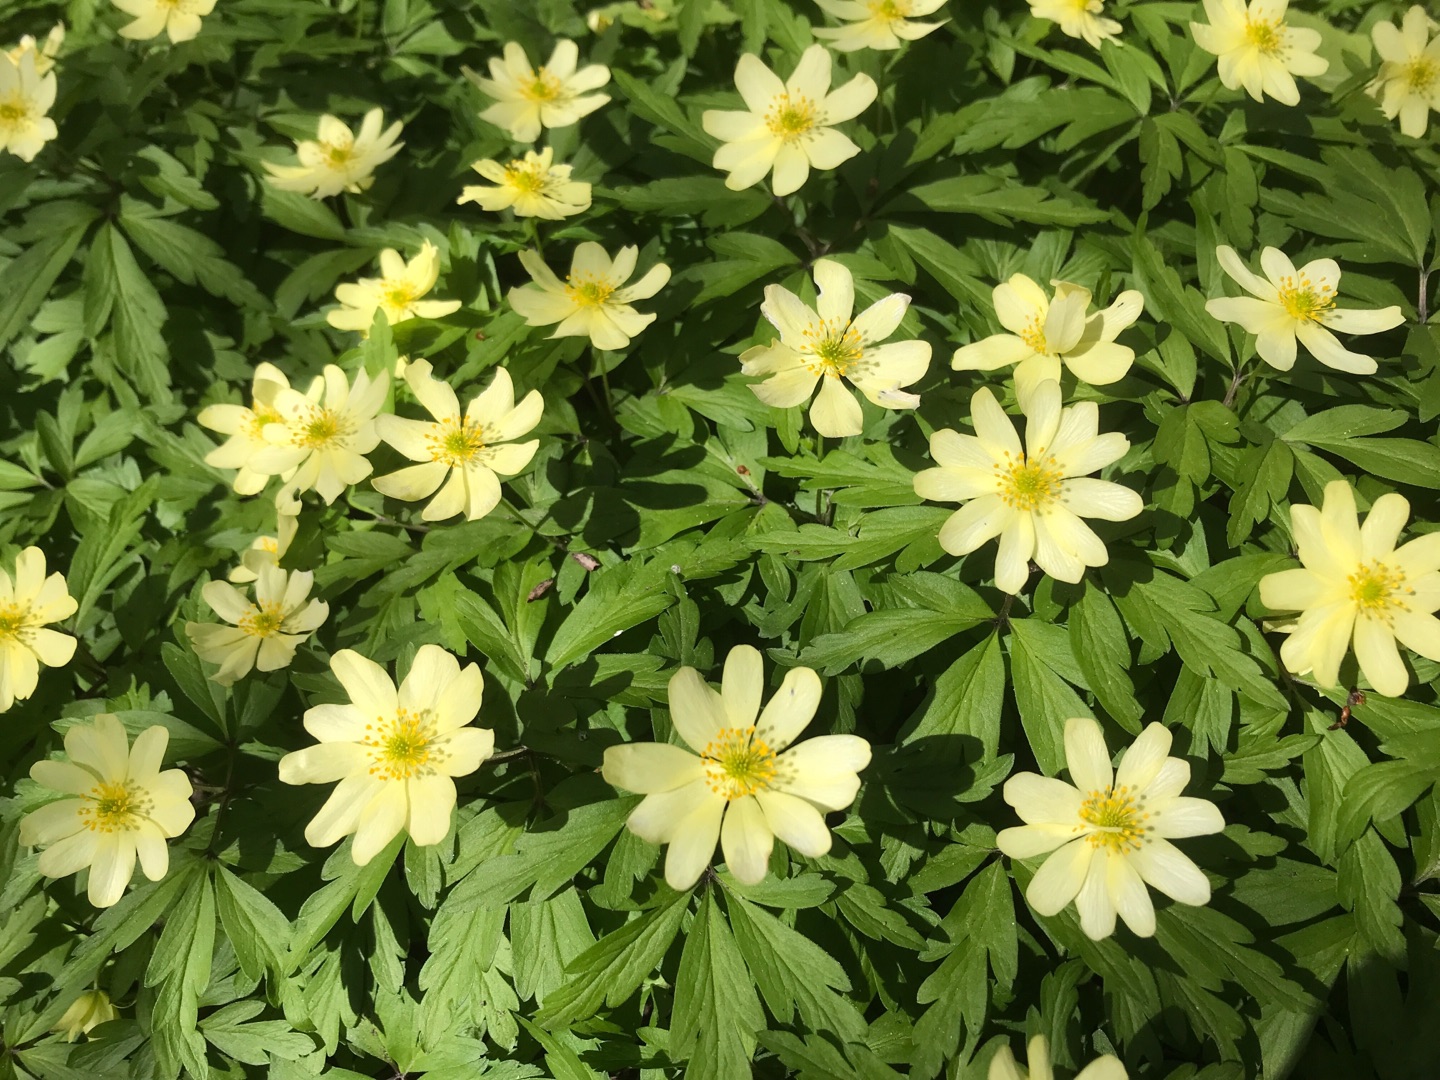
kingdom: Plantae
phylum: Tracheophyta
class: Magnoliopsida
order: Ranunculales
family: Ranunculaceae
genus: Anemone
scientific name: Anemone
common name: Svovlgul anemone
